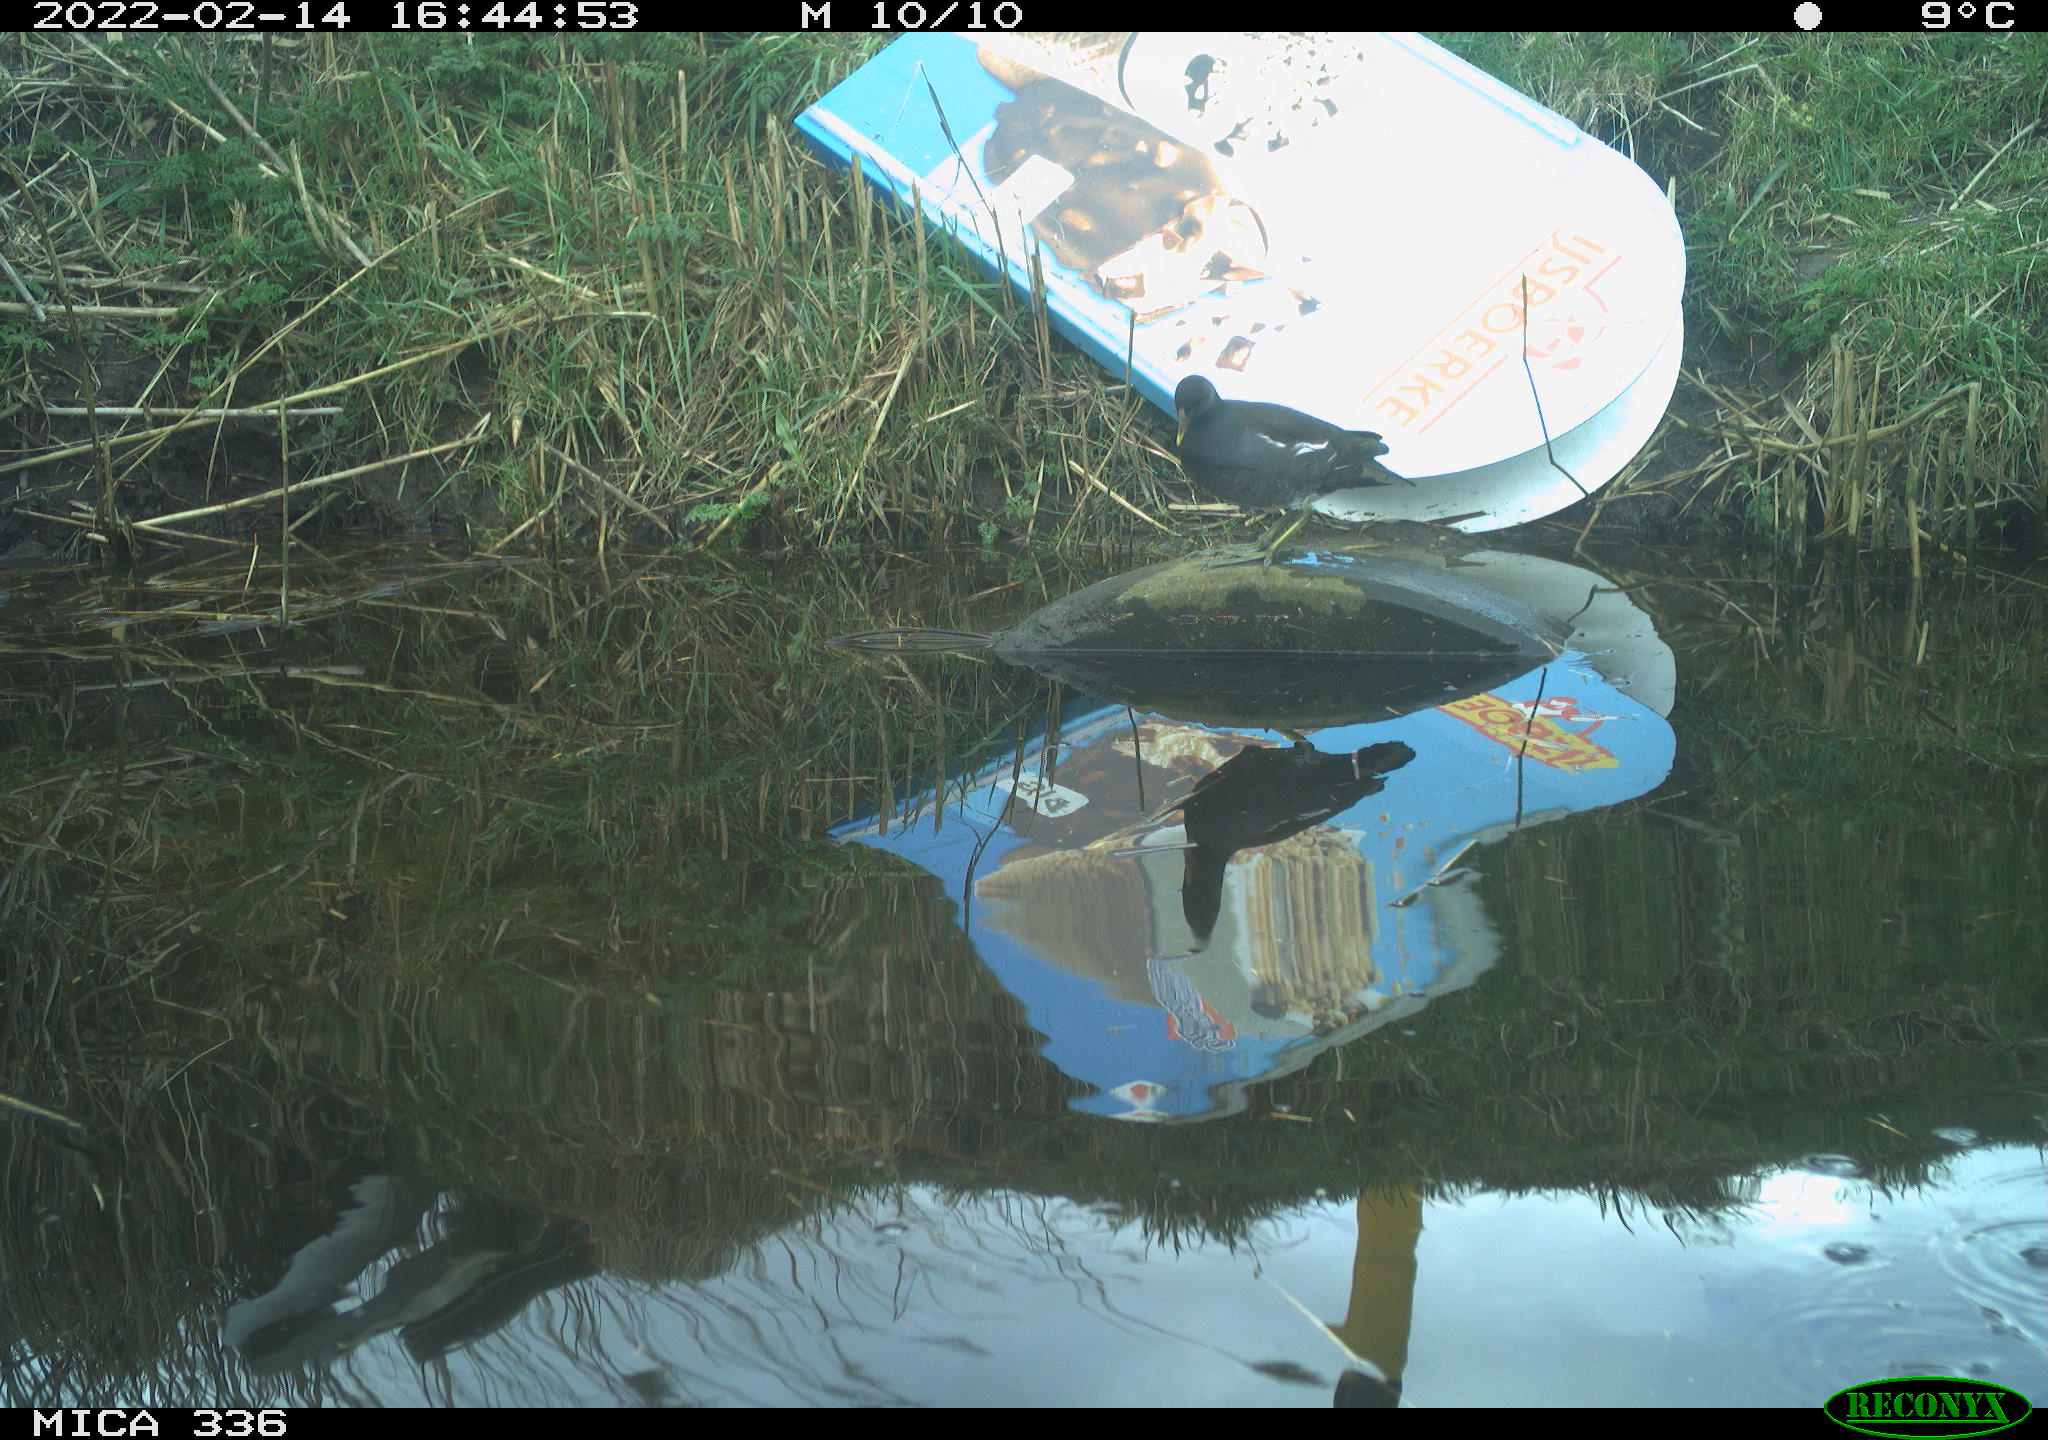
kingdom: Animalia
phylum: Chordata
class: Aves
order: Gruiformes
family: Rallidae
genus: Gallinula
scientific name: Gallinula chloropus
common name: Common moorhen
